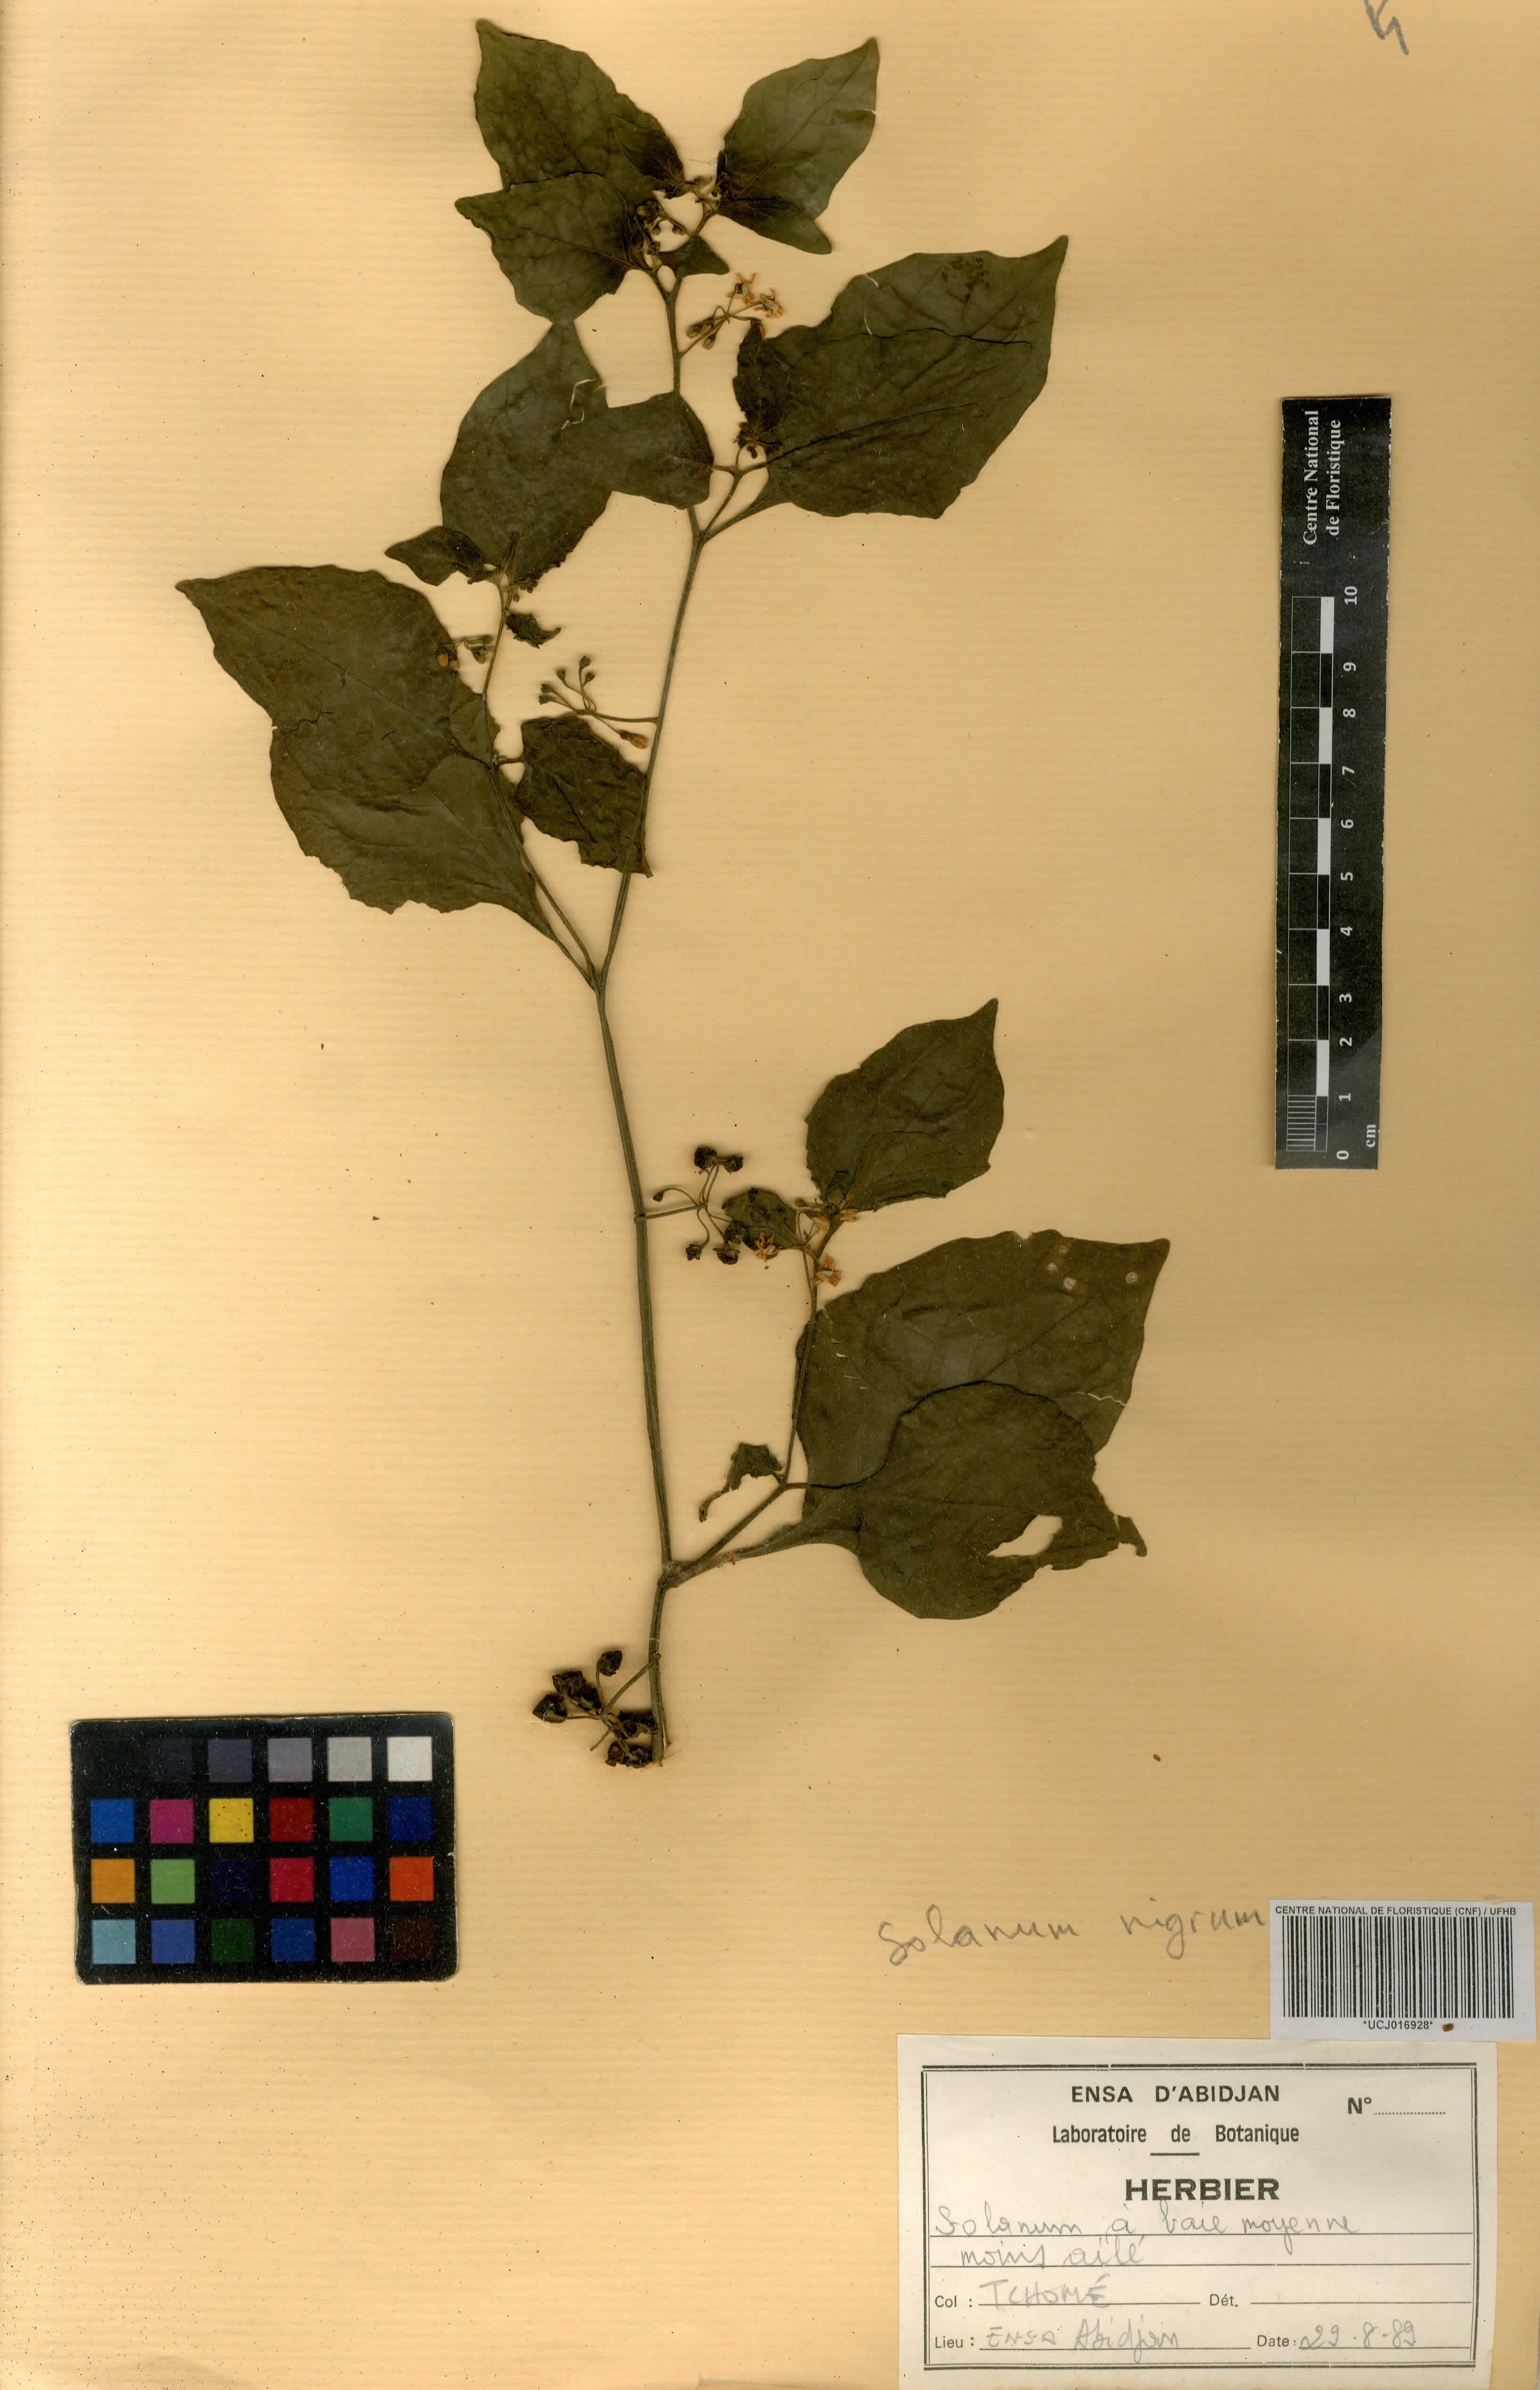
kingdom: Plantae
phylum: Tracheophyta
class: Magnoliopsida
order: Solanales
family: Solanaceae
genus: Solanum
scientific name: Solanum nigrum
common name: Black nightshade
